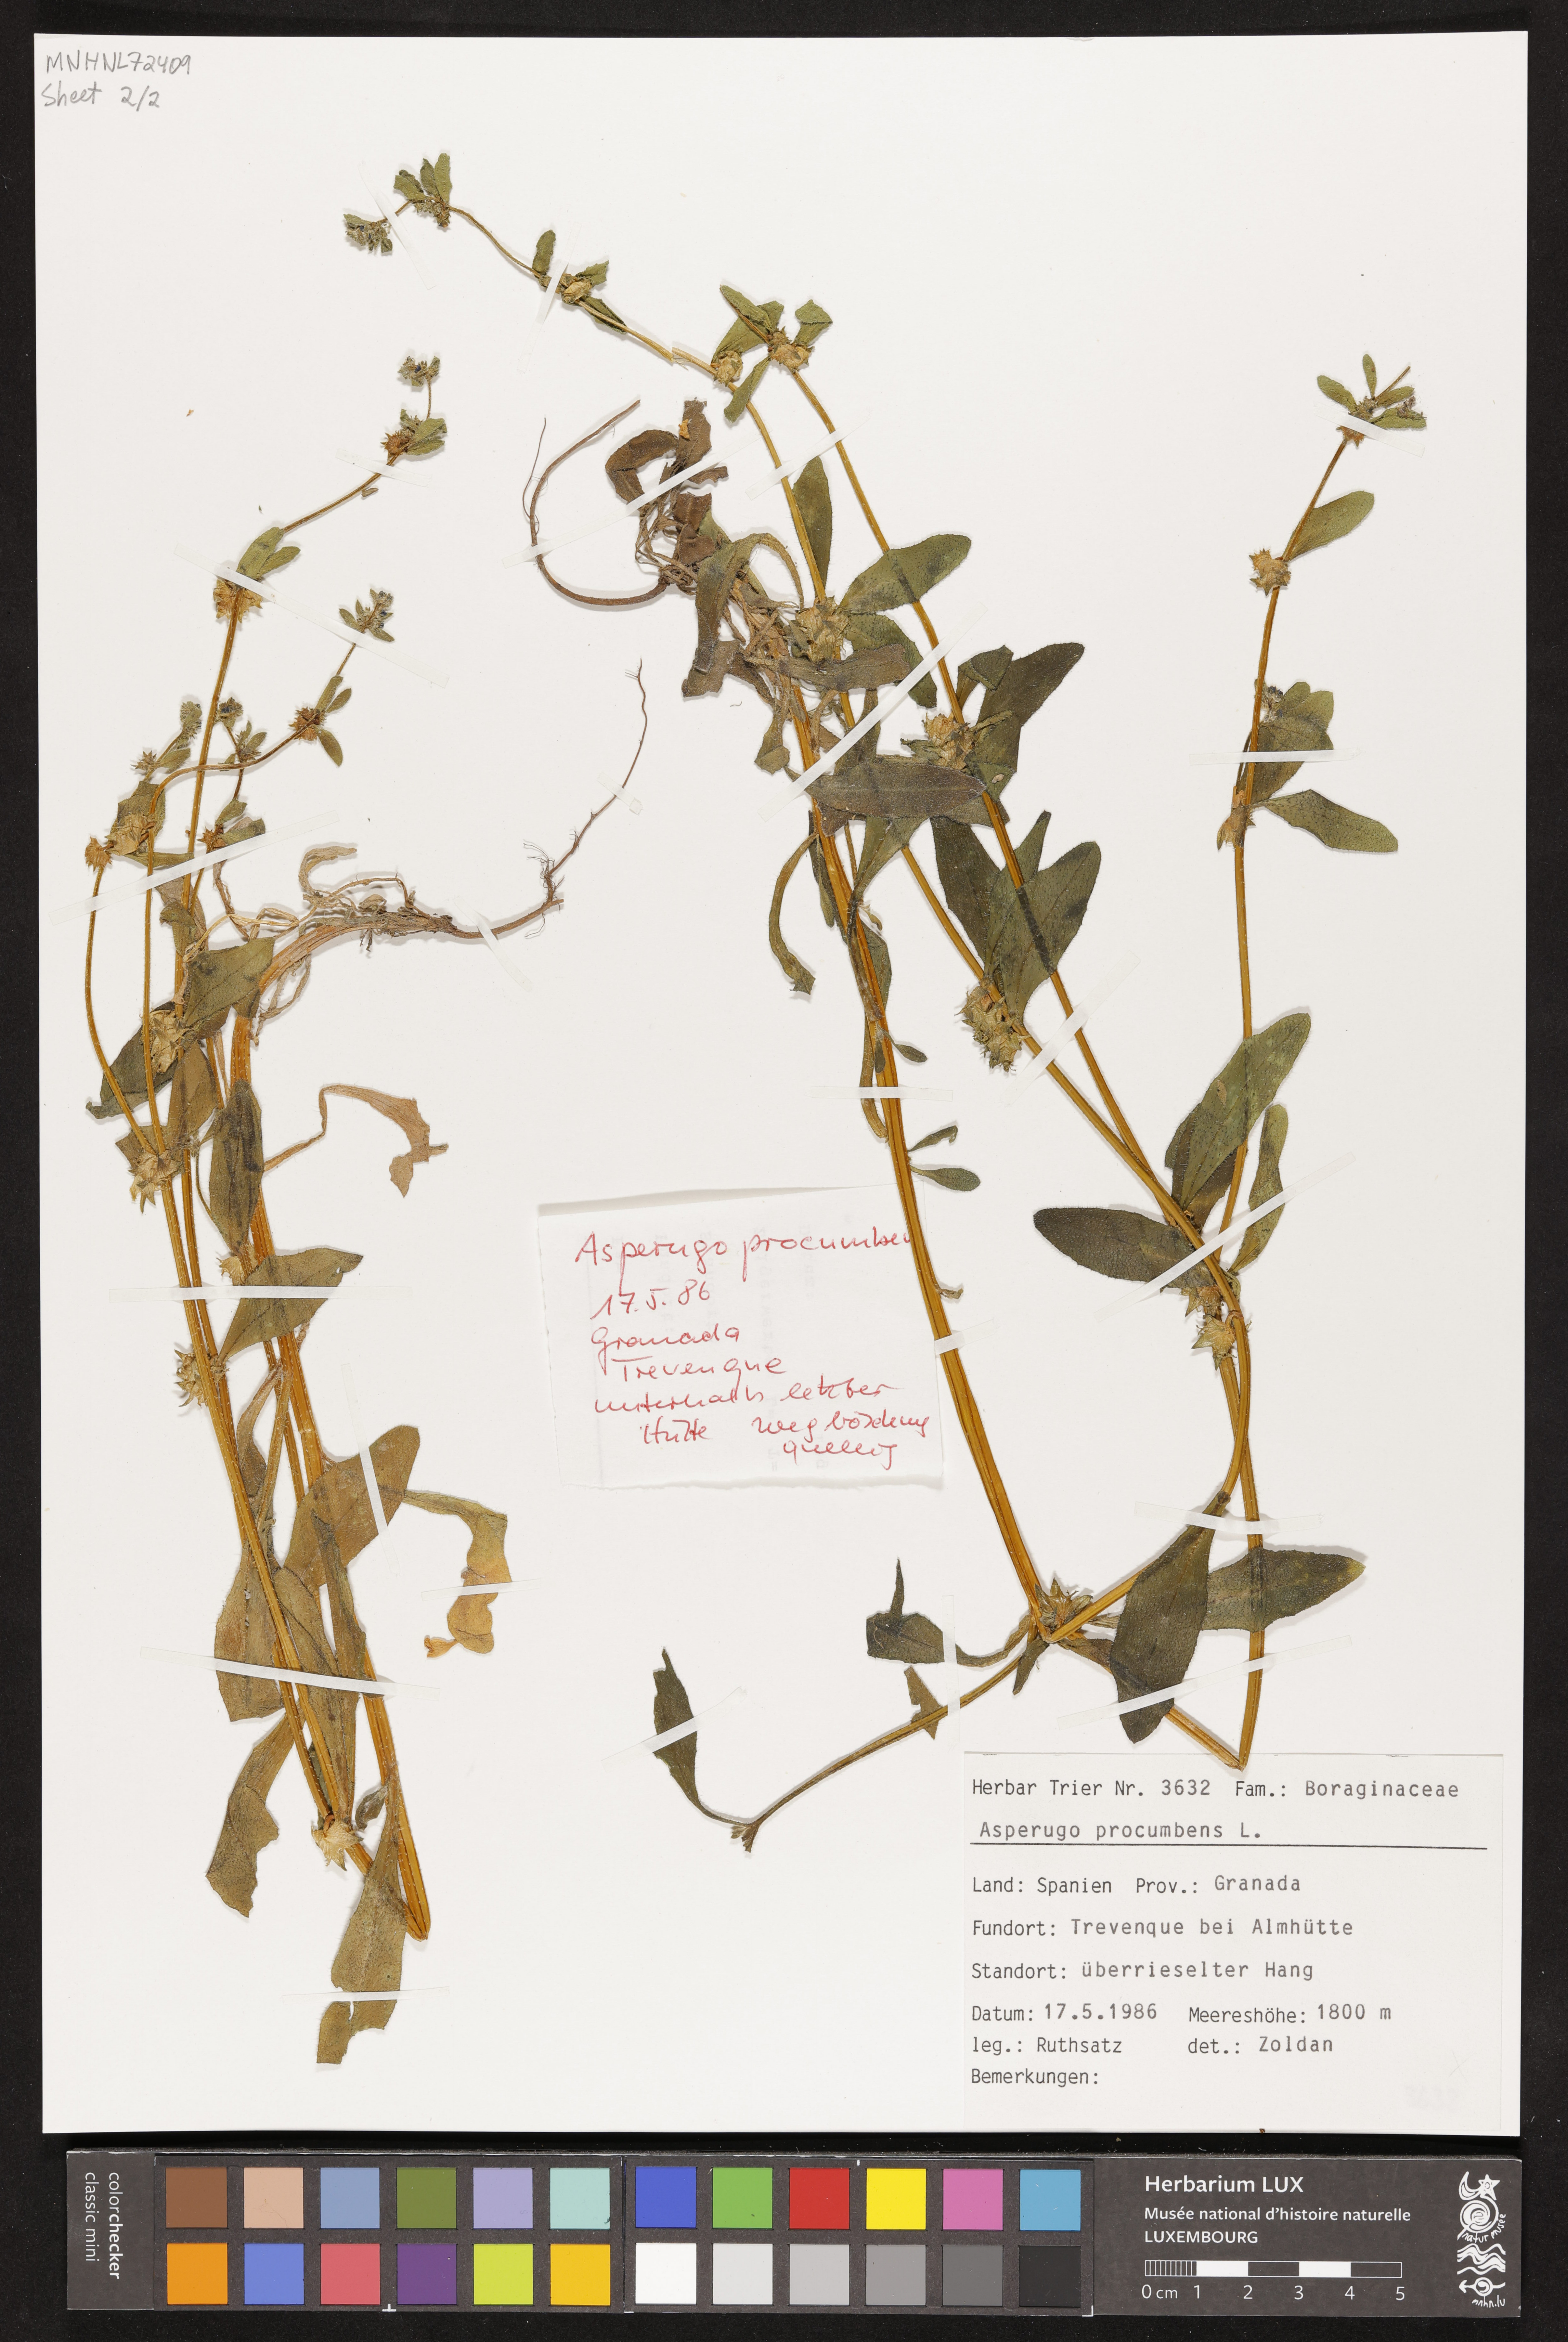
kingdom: Plantae
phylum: Tracheophyta
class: Magnoliopsida
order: Boraginales
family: Boraginaceae
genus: Asperugo
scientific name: Asperugo procumbens
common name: Madwort
